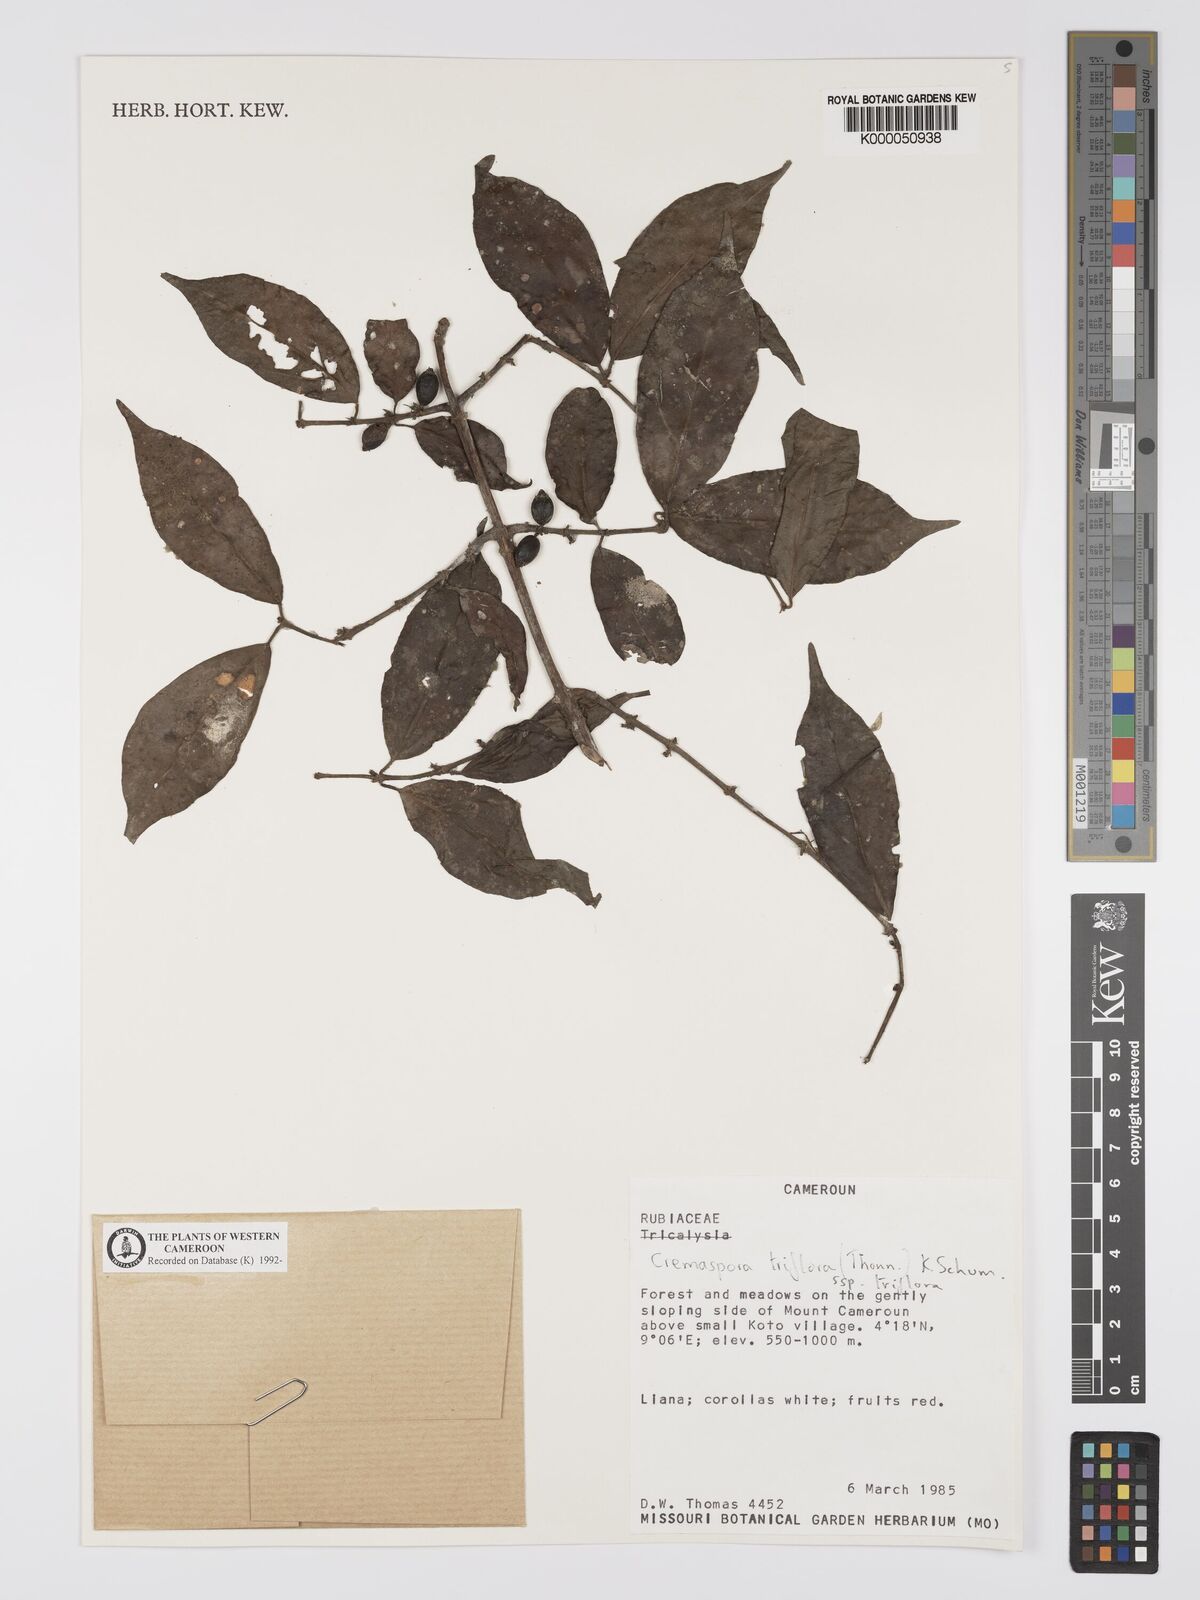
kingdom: Plantae
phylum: Tracheophyta
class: Magnoliopsida
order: Gentianales
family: Rubiaceae
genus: Cremaspora
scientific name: Cremaspora triflora
